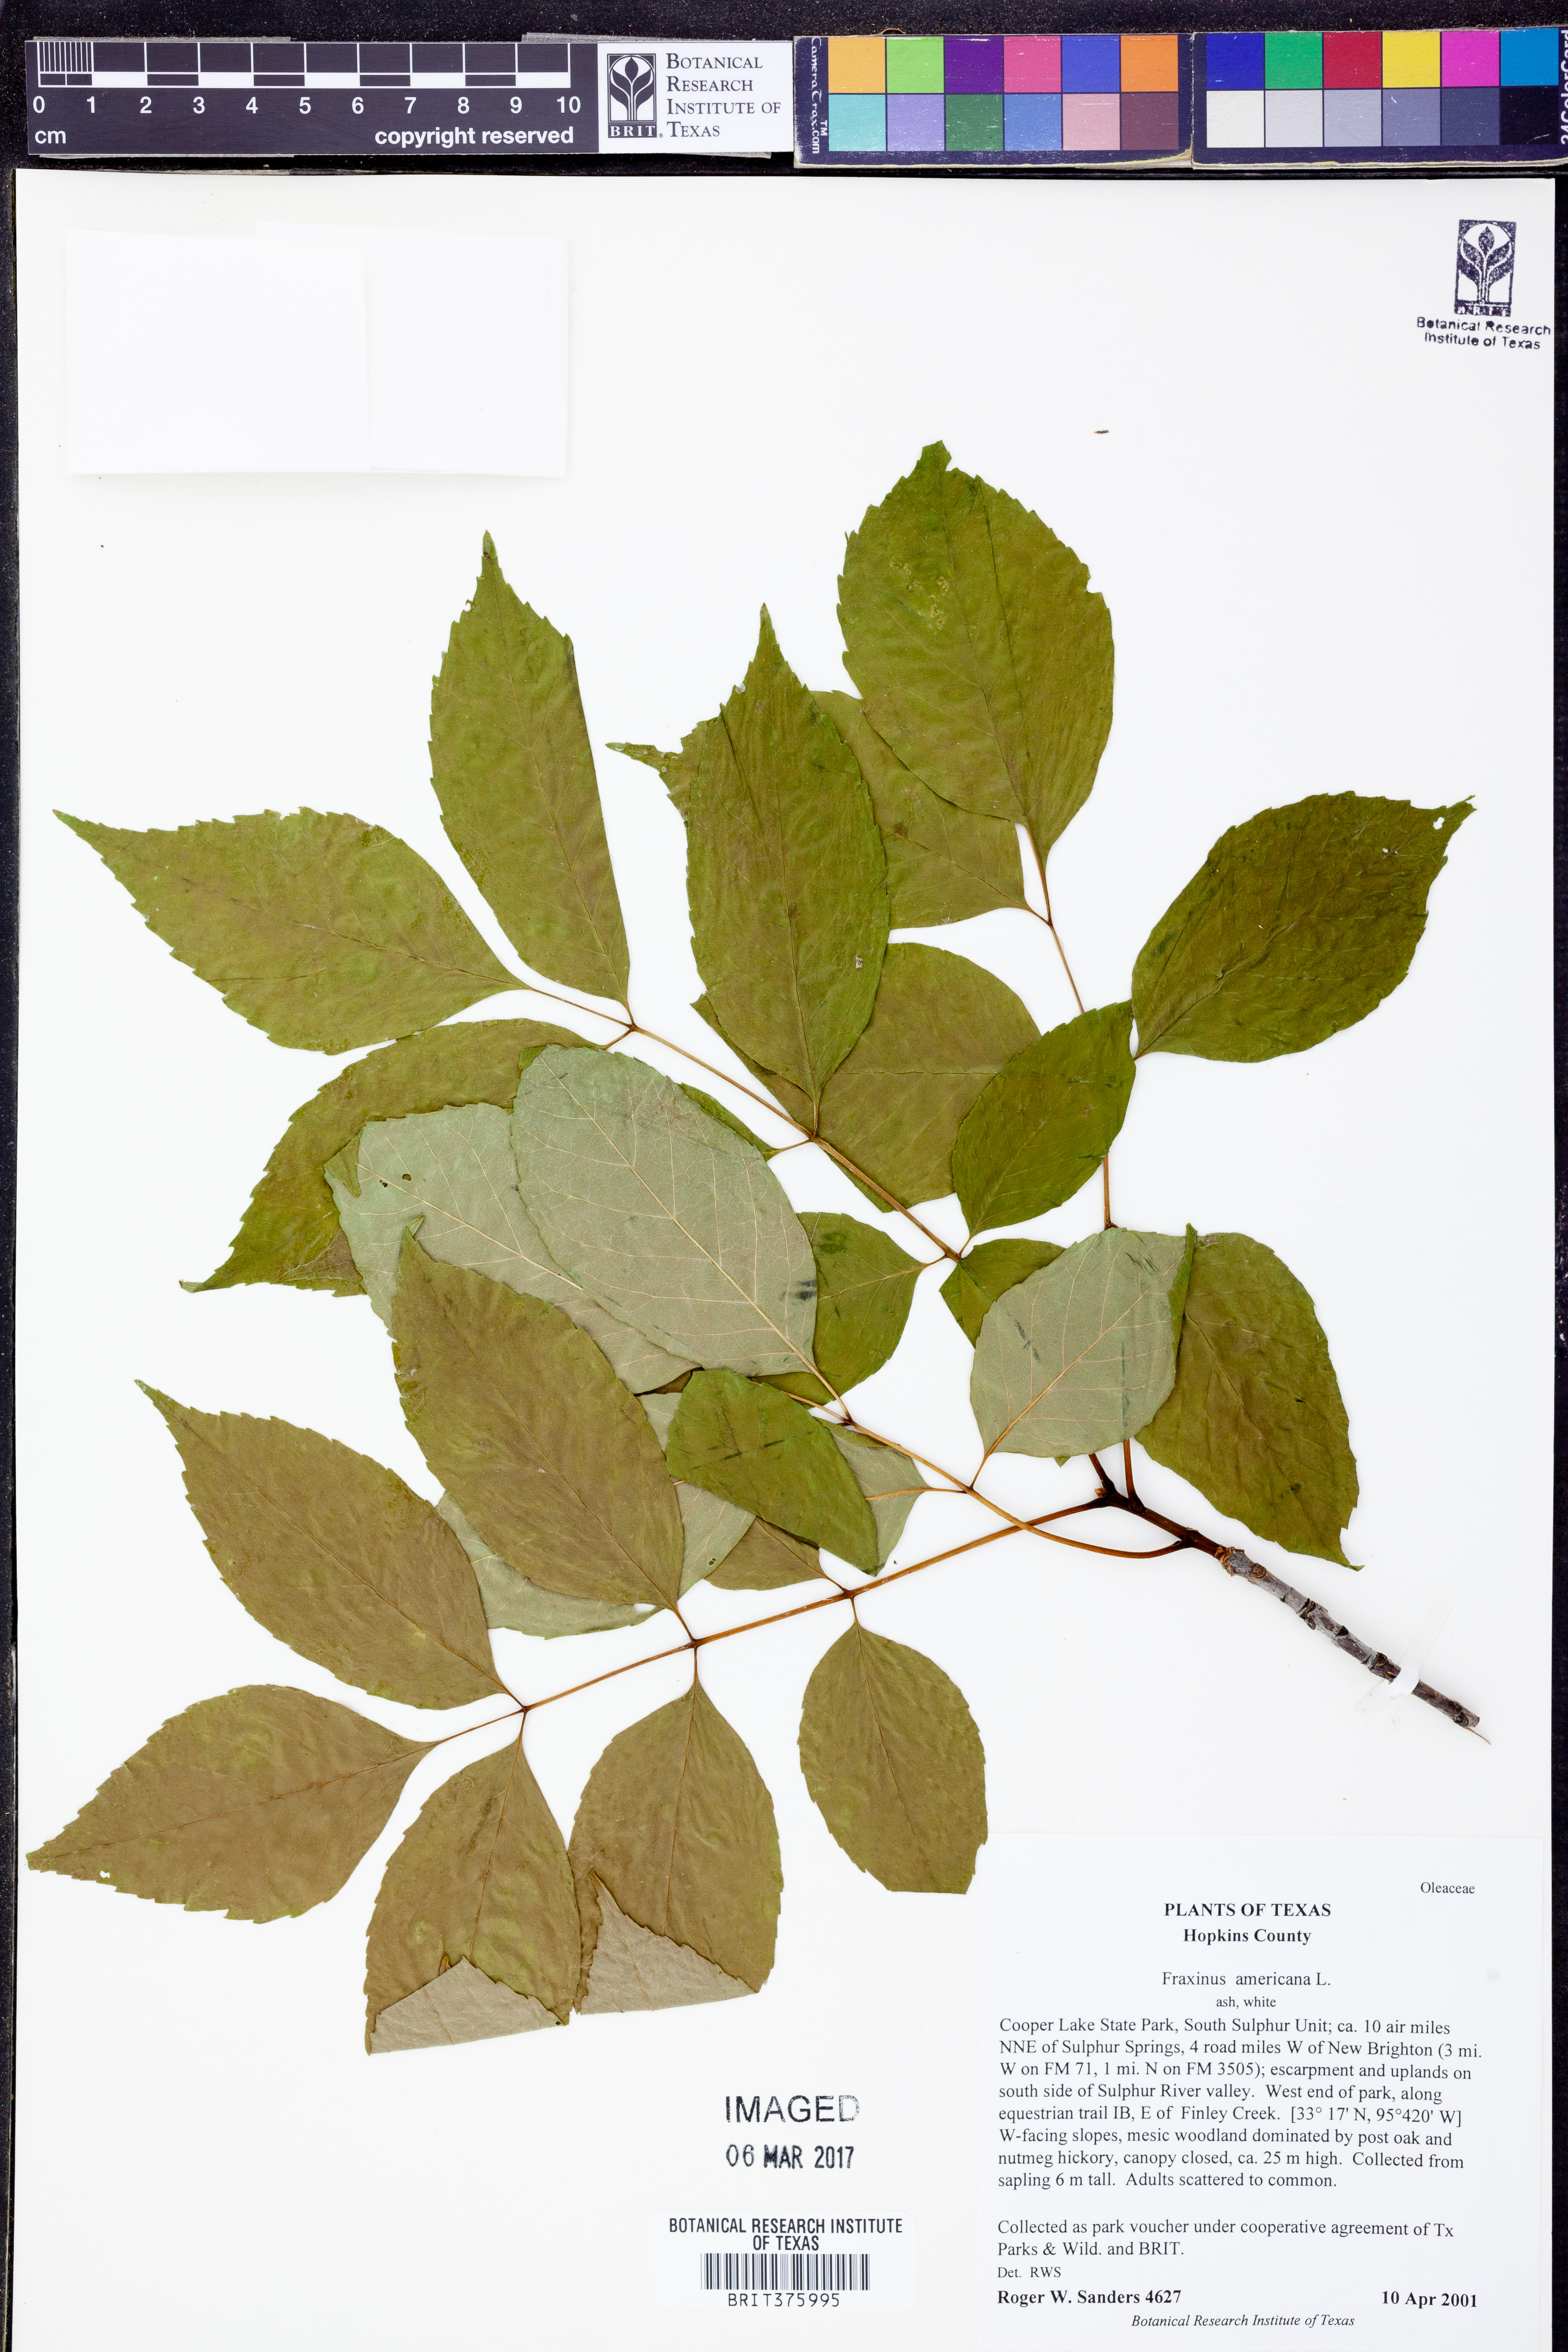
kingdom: Plantae
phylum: Tracheophyta
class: Magnoliopsida
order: Lamiales
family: Oleaceae
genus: Fraxinus
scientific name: Fraxinus americana
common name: White ash
